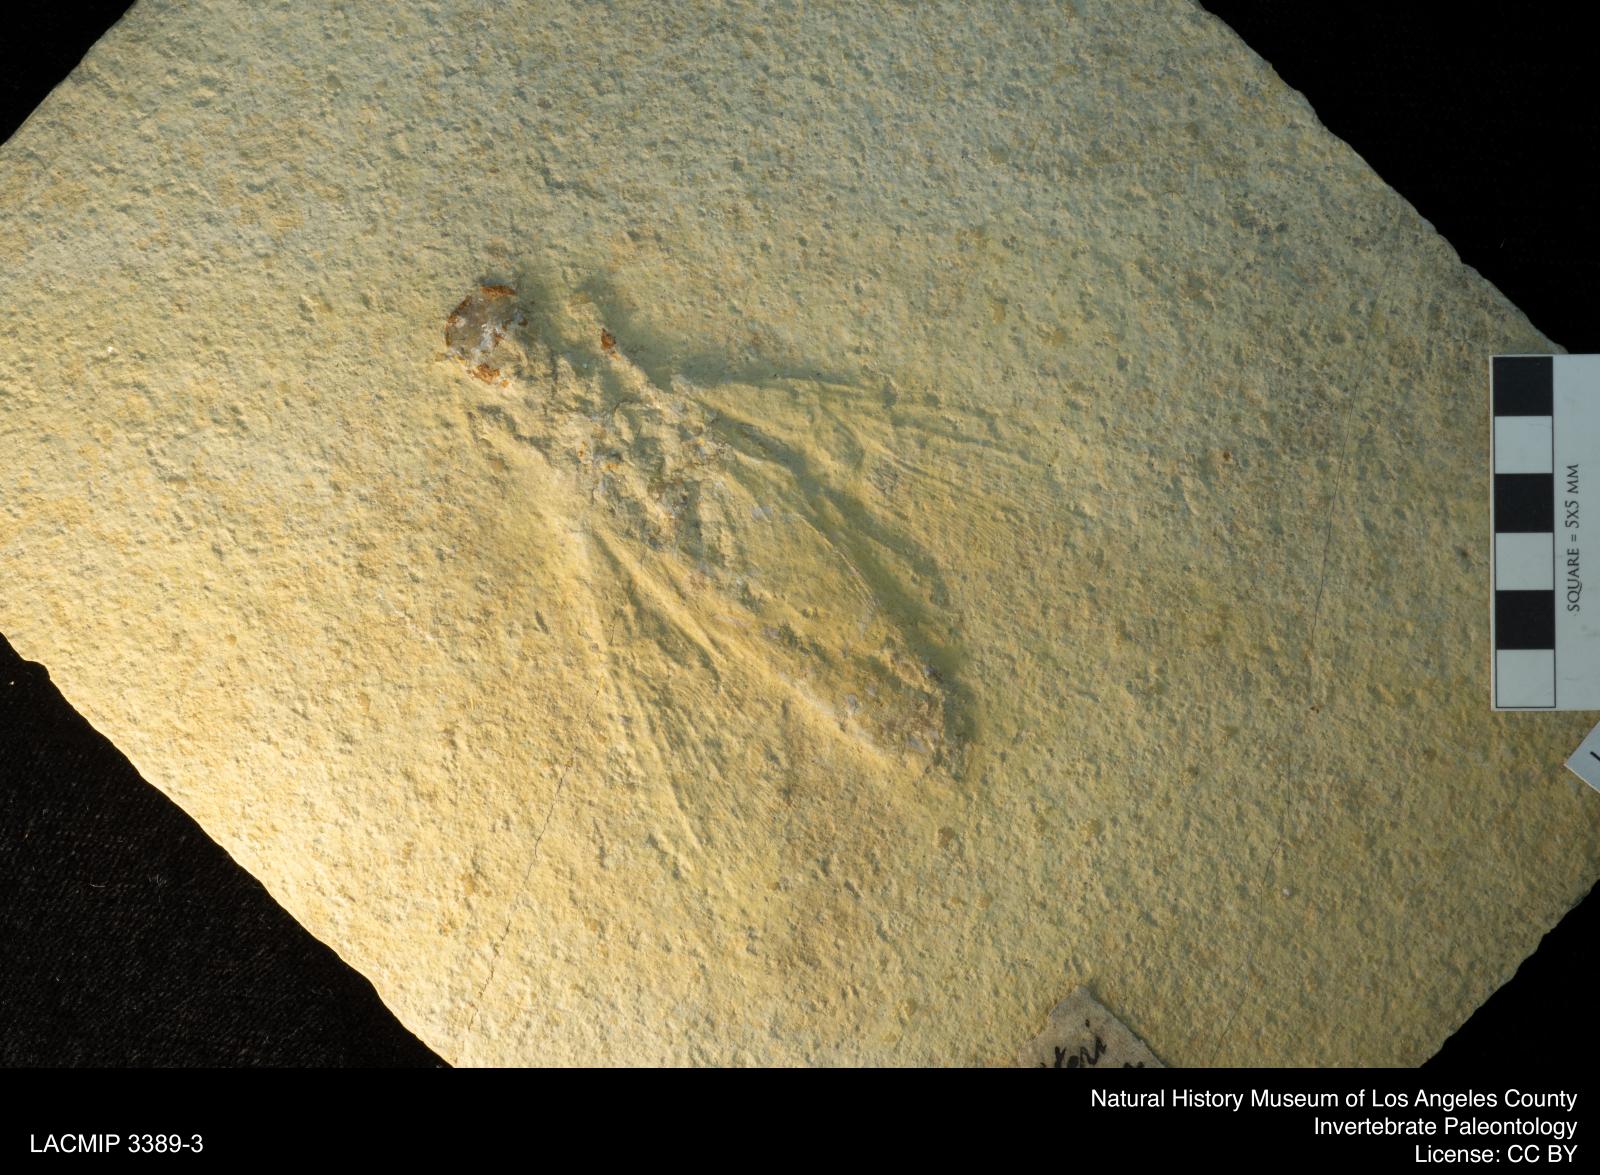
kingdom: Animalia
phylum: Arthropoda
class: Insecta
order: Hymenoptera
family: Pseudosiricidae
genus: Myrmicium
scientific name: Myrmicium Sphinx schroeteri
